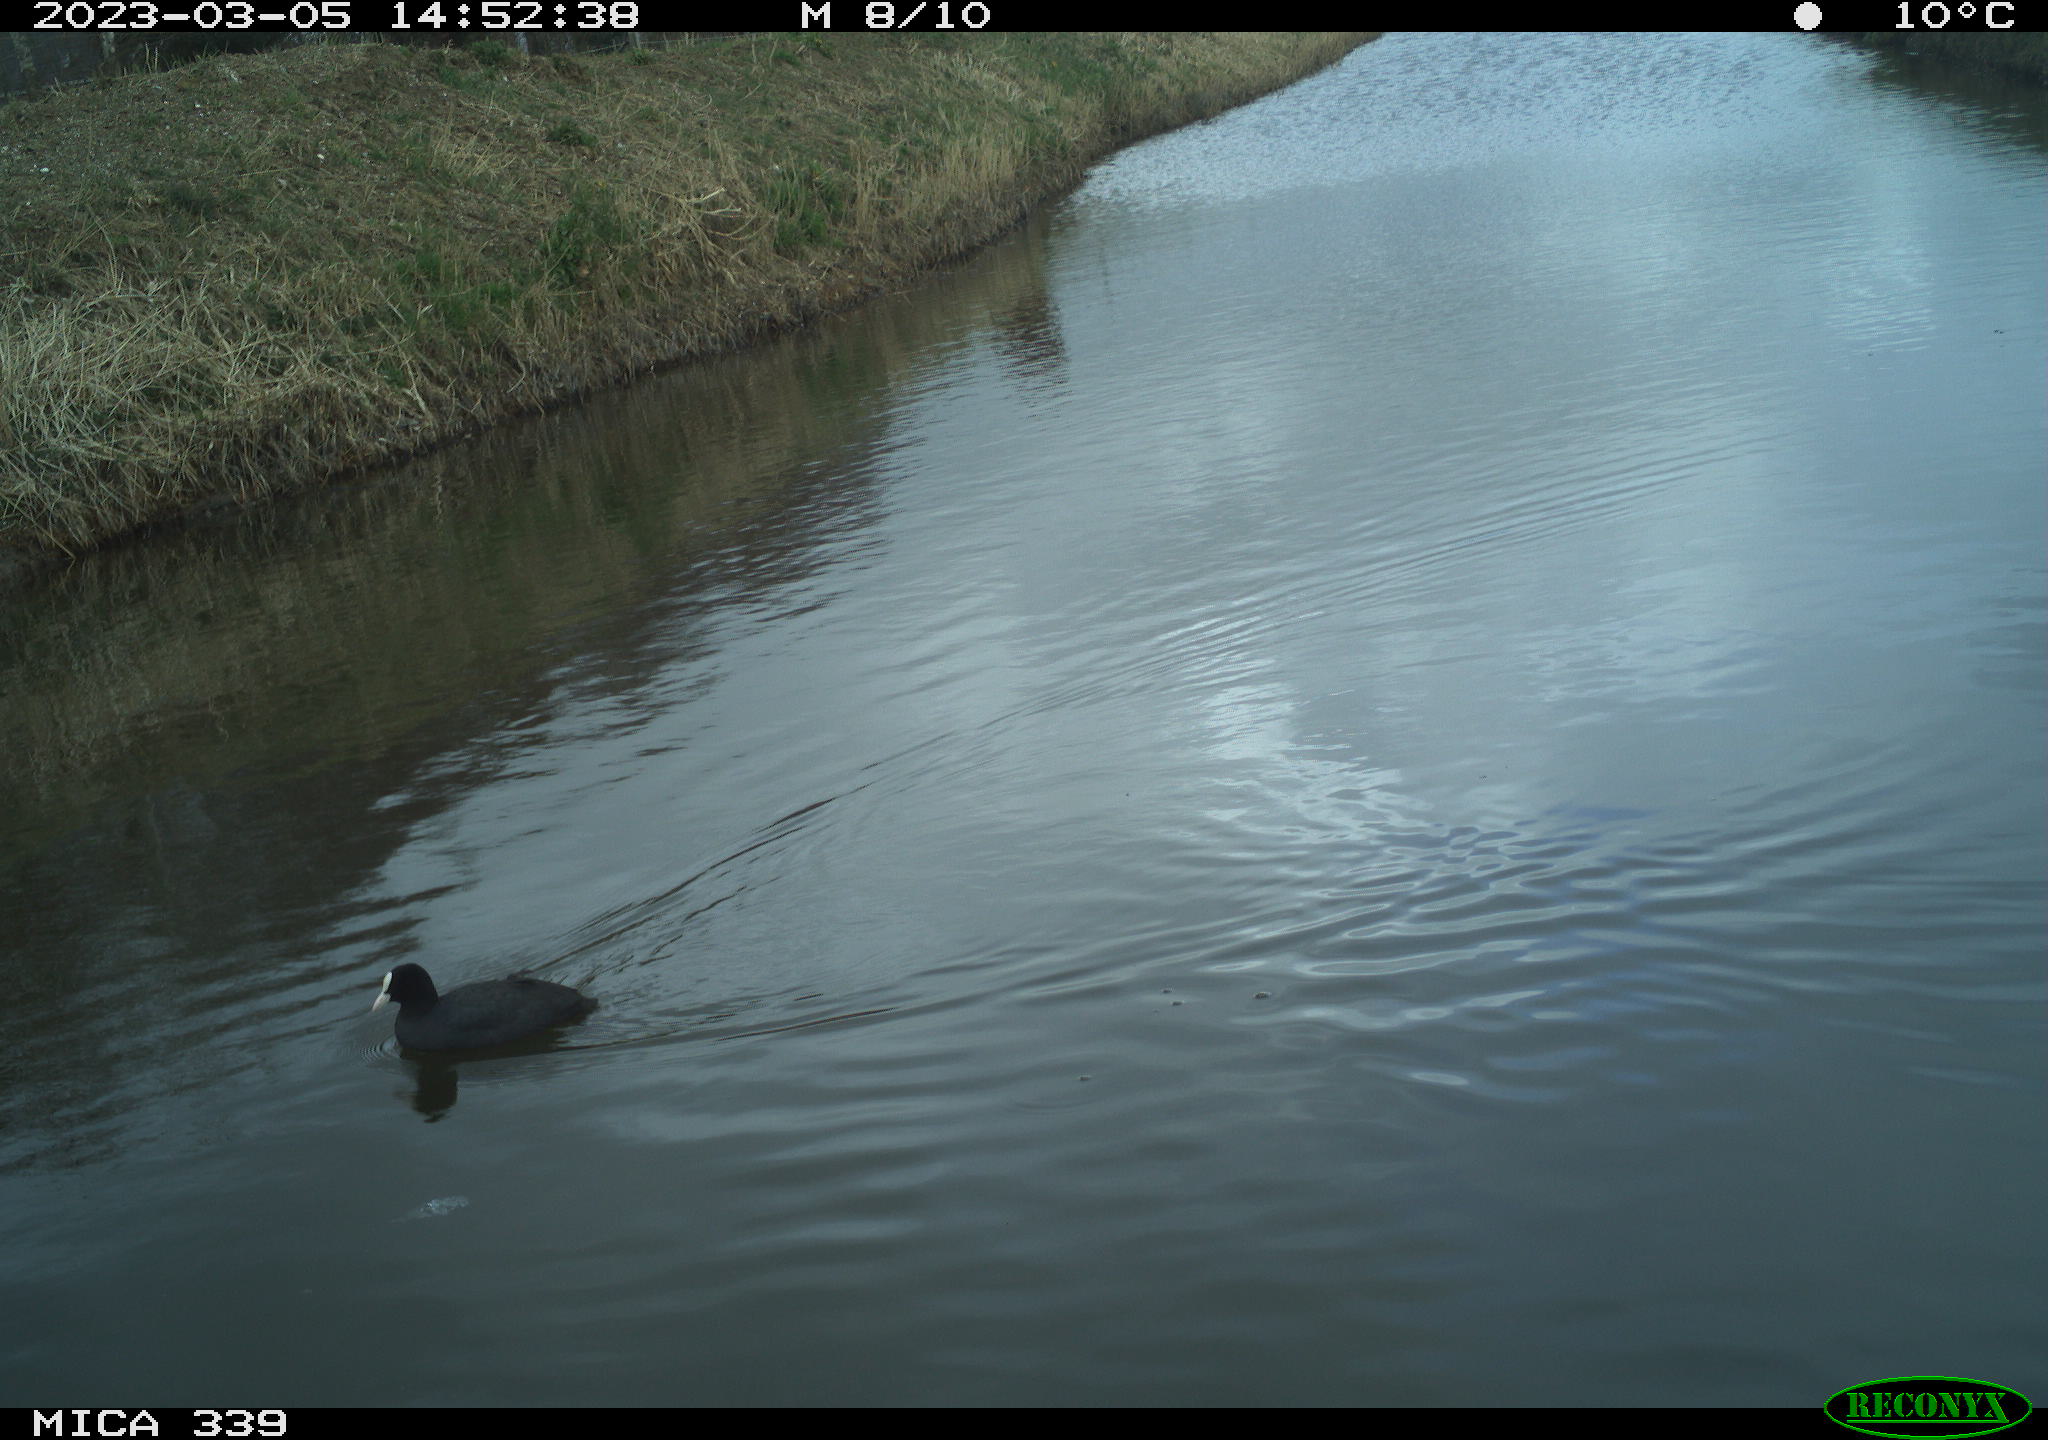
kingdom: Animalia
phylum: Chordata
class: Aves
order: Gruiformes
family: Rallidae
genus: Fulica
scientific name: Fulica atra
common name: Eurasian coot
